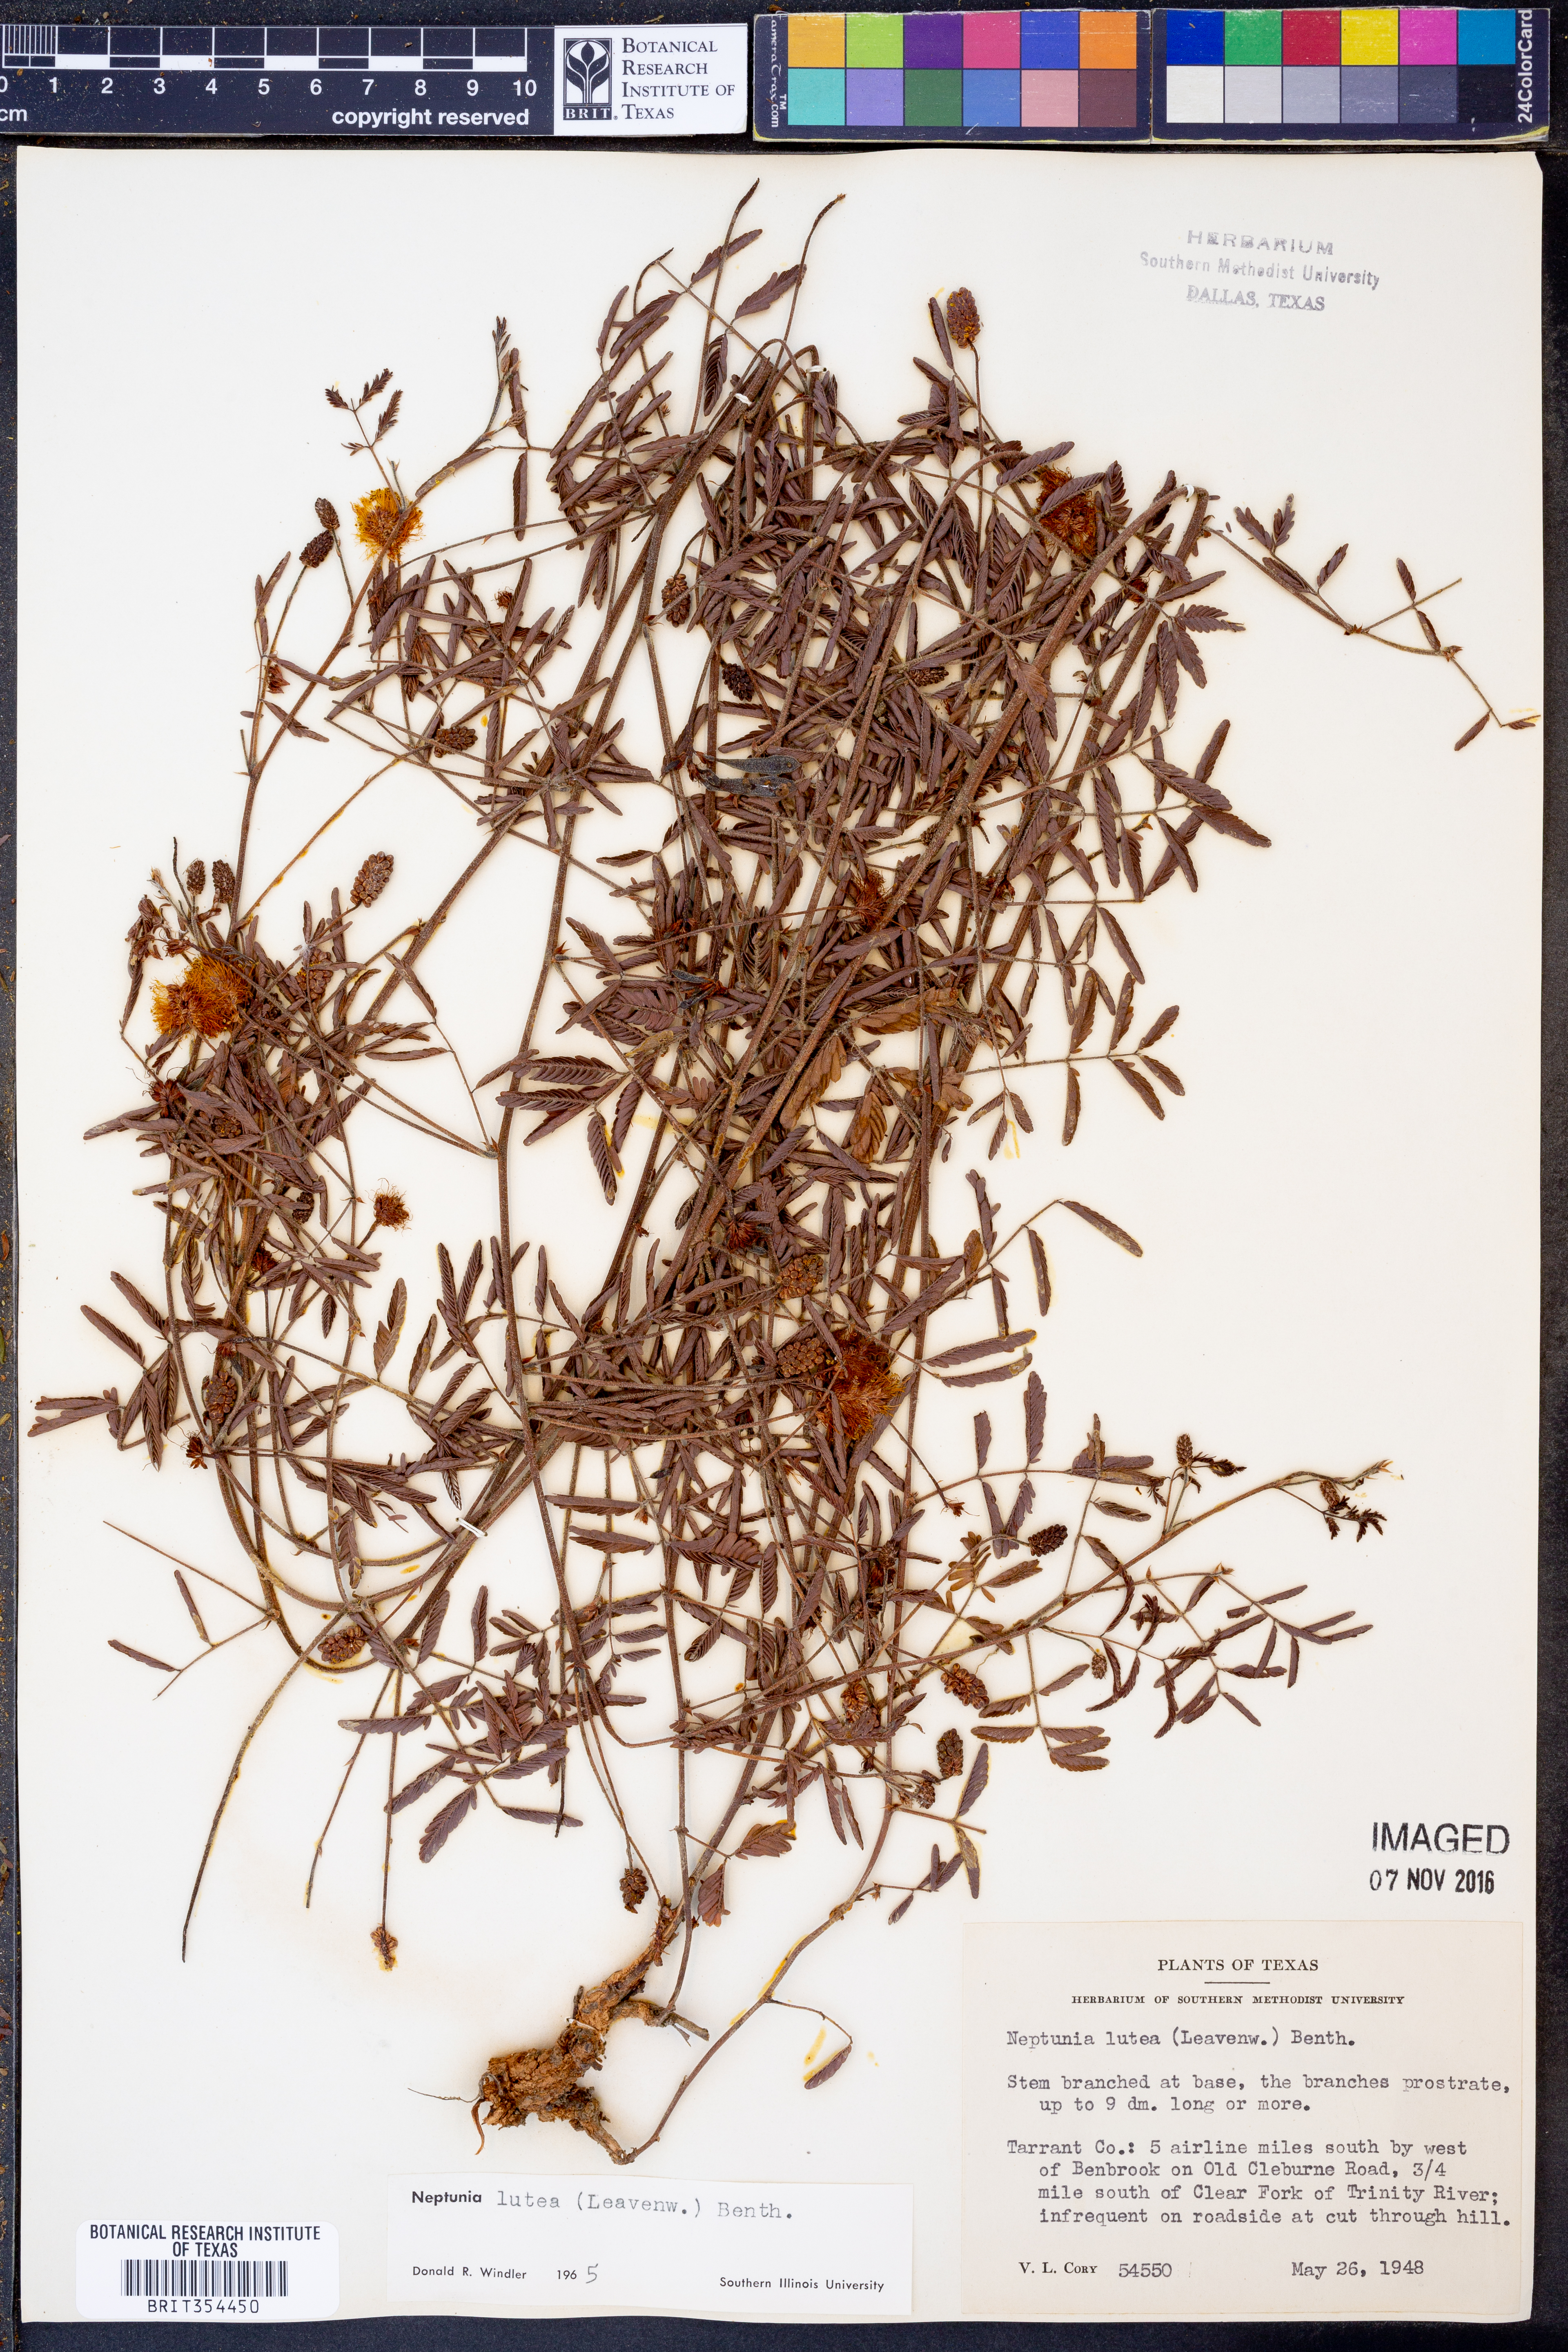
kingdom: Plantae
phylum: Tracheophyta
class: Magnoliopsida
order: Fabales
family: Fabaceae
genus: Neptunia
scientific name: Neptunia lutea
